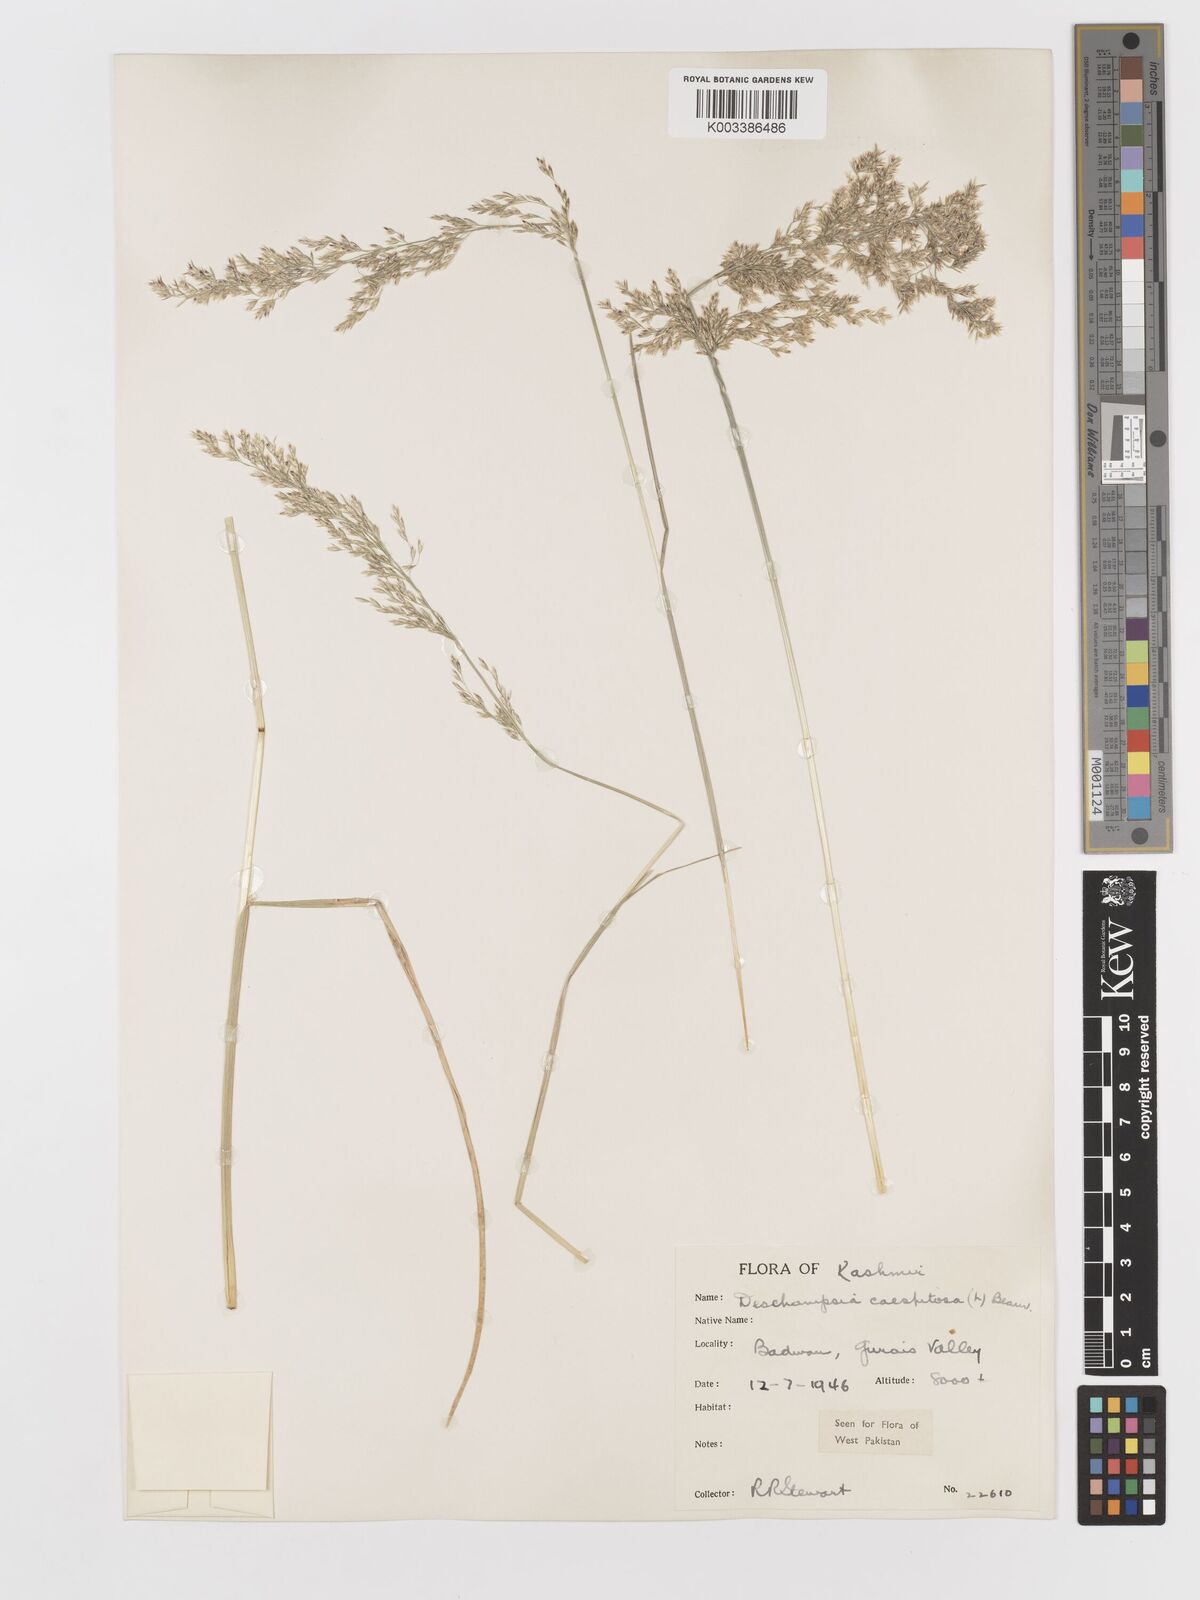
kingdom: Plantae
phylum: Tracheophyta
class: Liliopsida
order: Poales
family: Poaceae
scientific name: Poaceae
